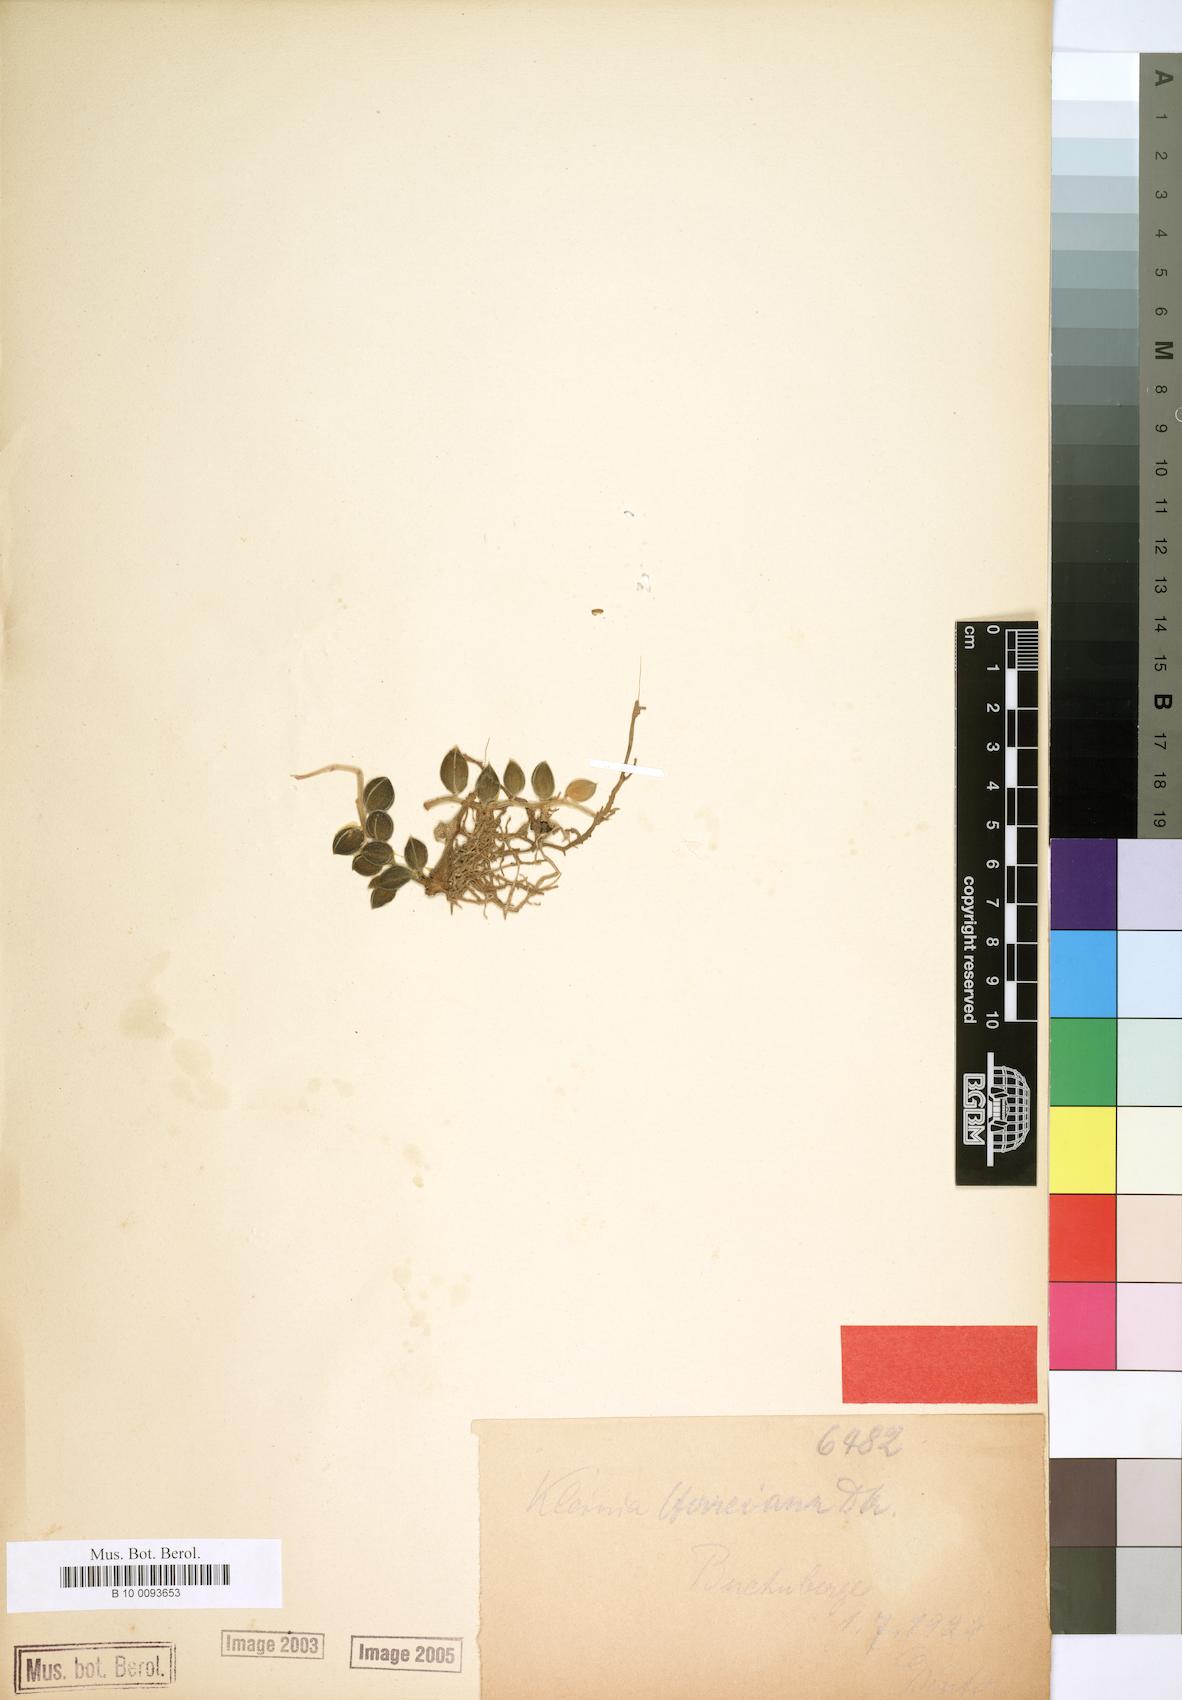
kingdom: Plantae
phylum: Tracheophyta
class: Magnoliopsida
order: Asterales
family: Asteraceae
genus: Kleinia
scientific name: Kleinia herreiana
